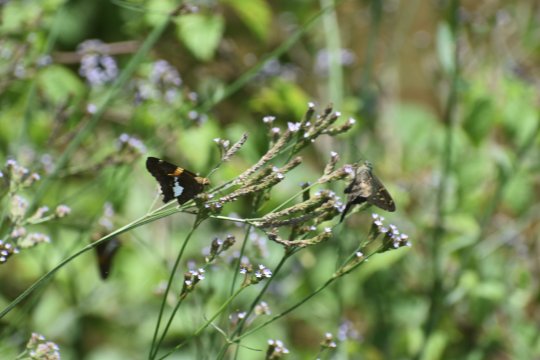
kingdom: Animalia
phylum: Arthropoda
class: Insecta
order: Lepidoptera
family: Hesperiidae
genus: Urbanus
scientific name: Urbanus proteus
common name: Long-tailed Skipper
